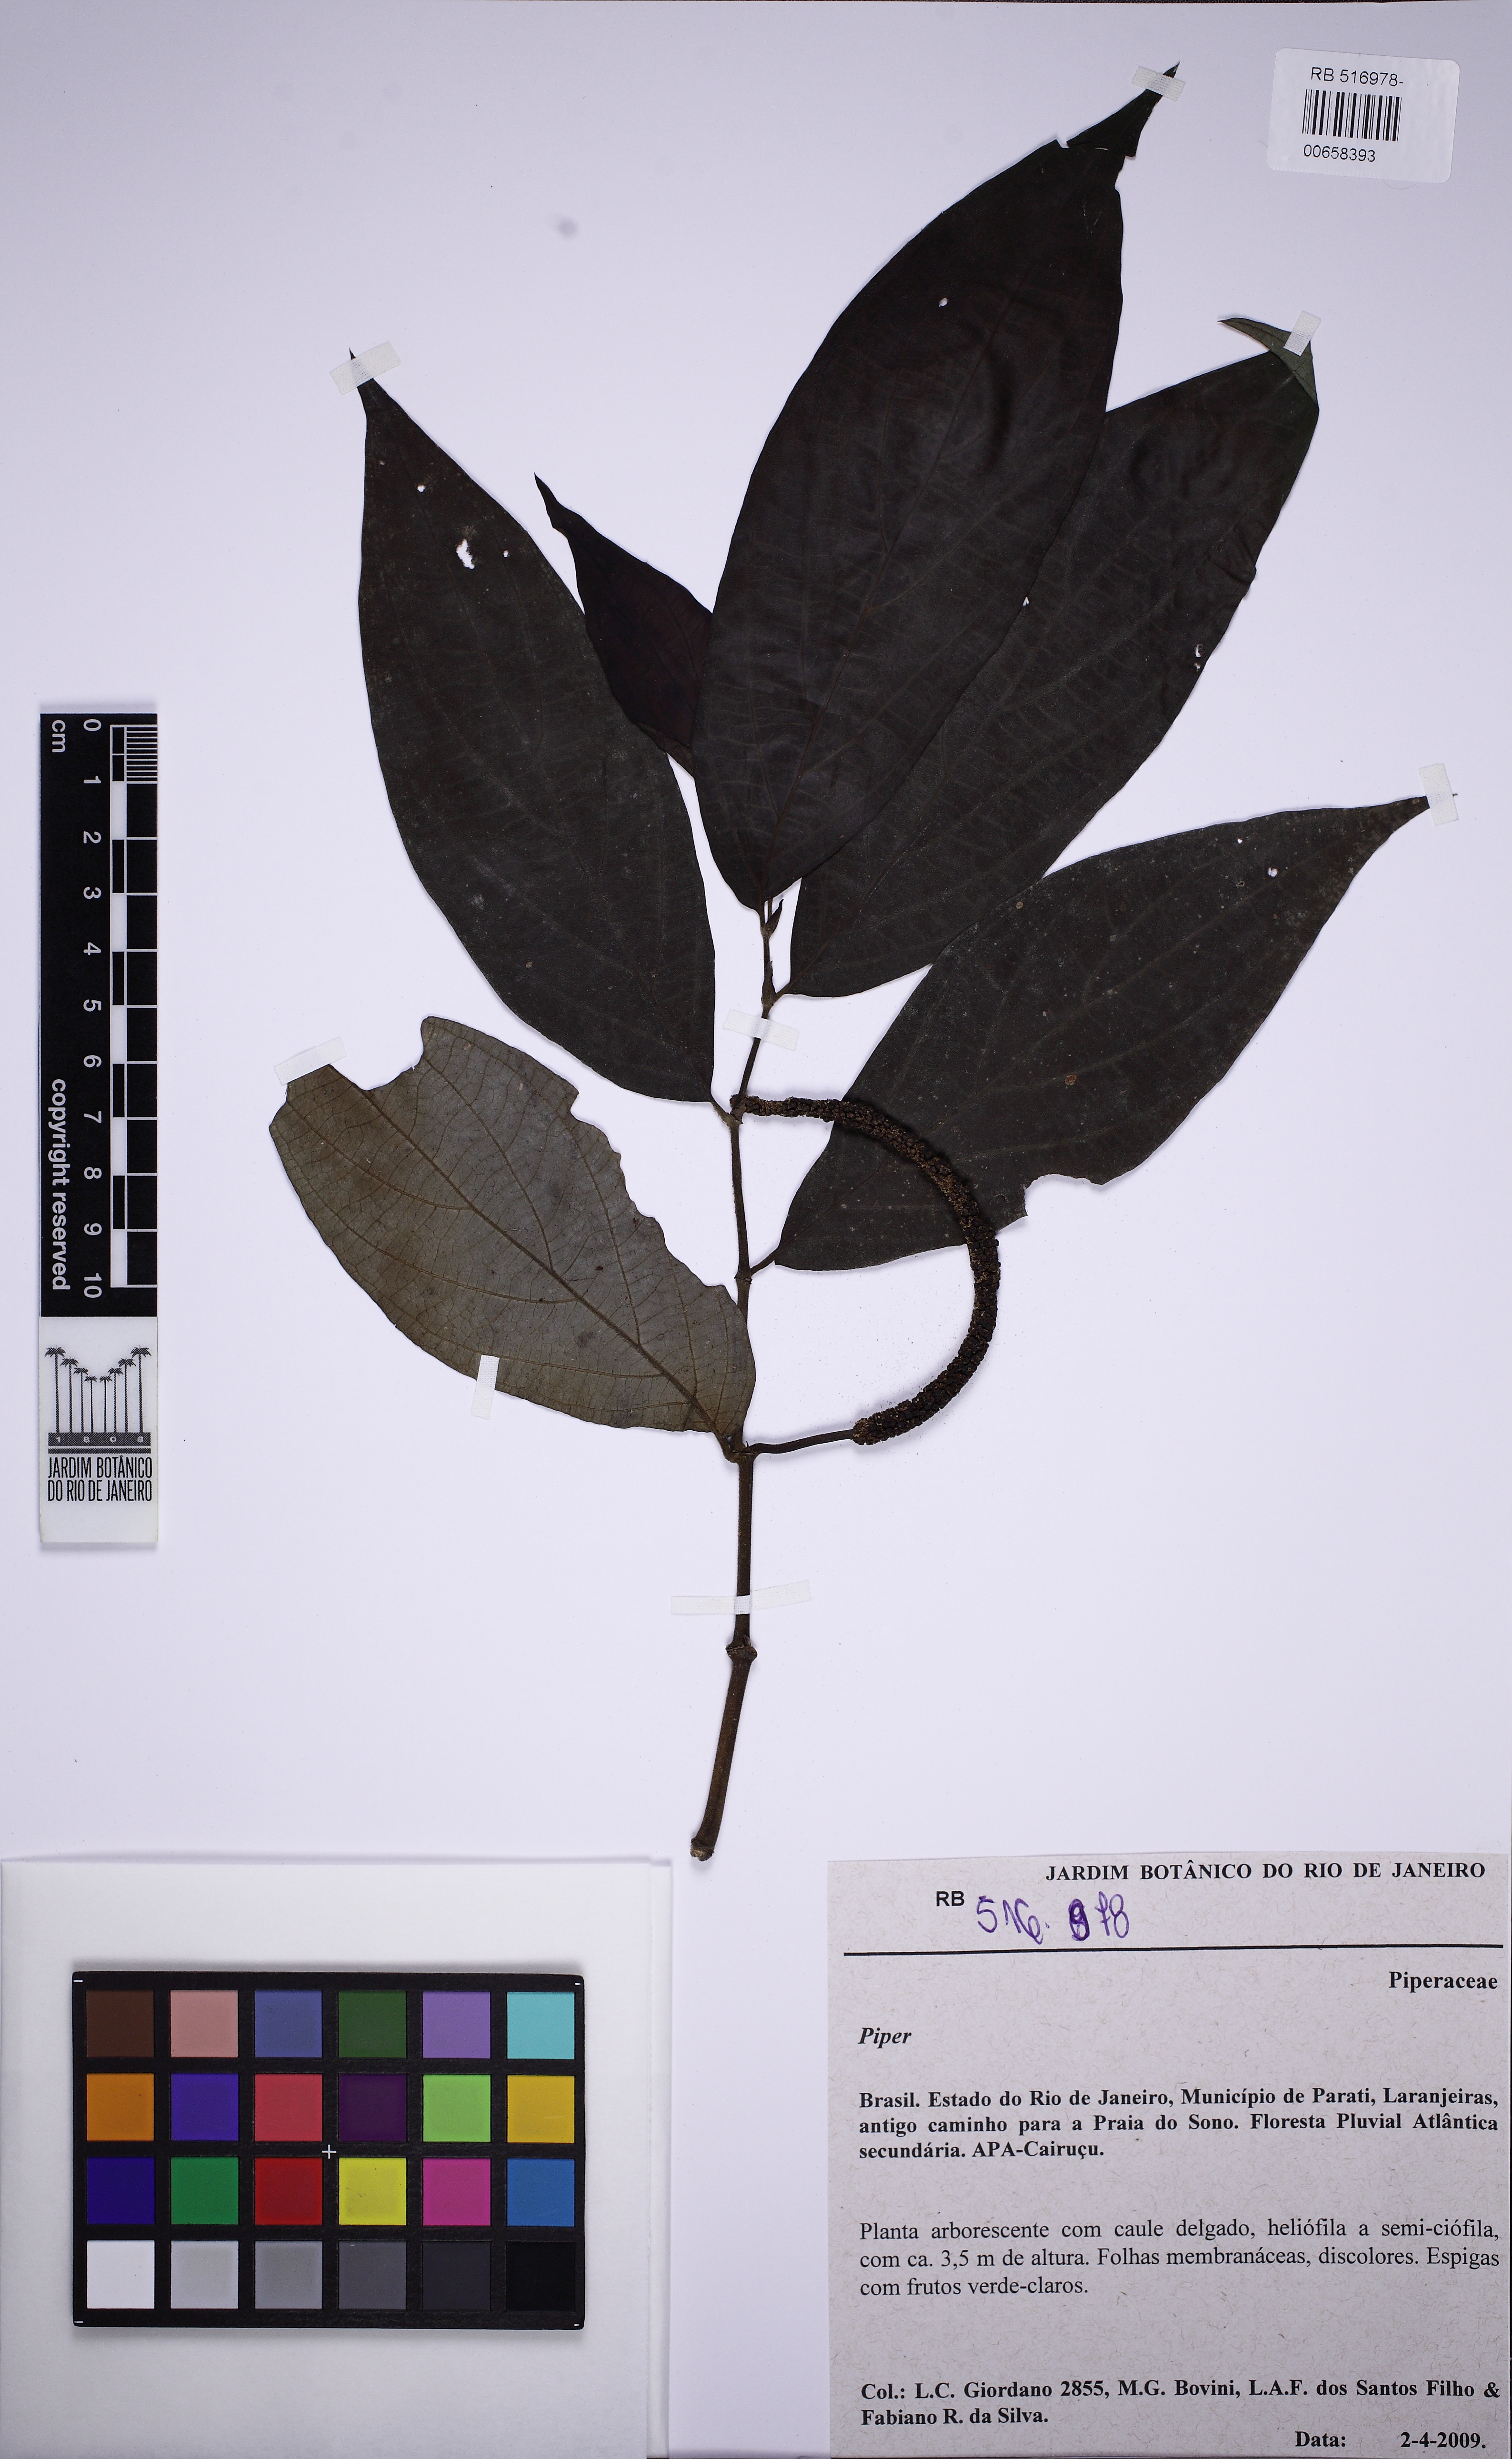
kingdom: Plantae
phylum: Tracheophyta
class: Magnoliopsida
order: Piperales
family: Piperaceae
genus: Piper
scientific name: Piper
